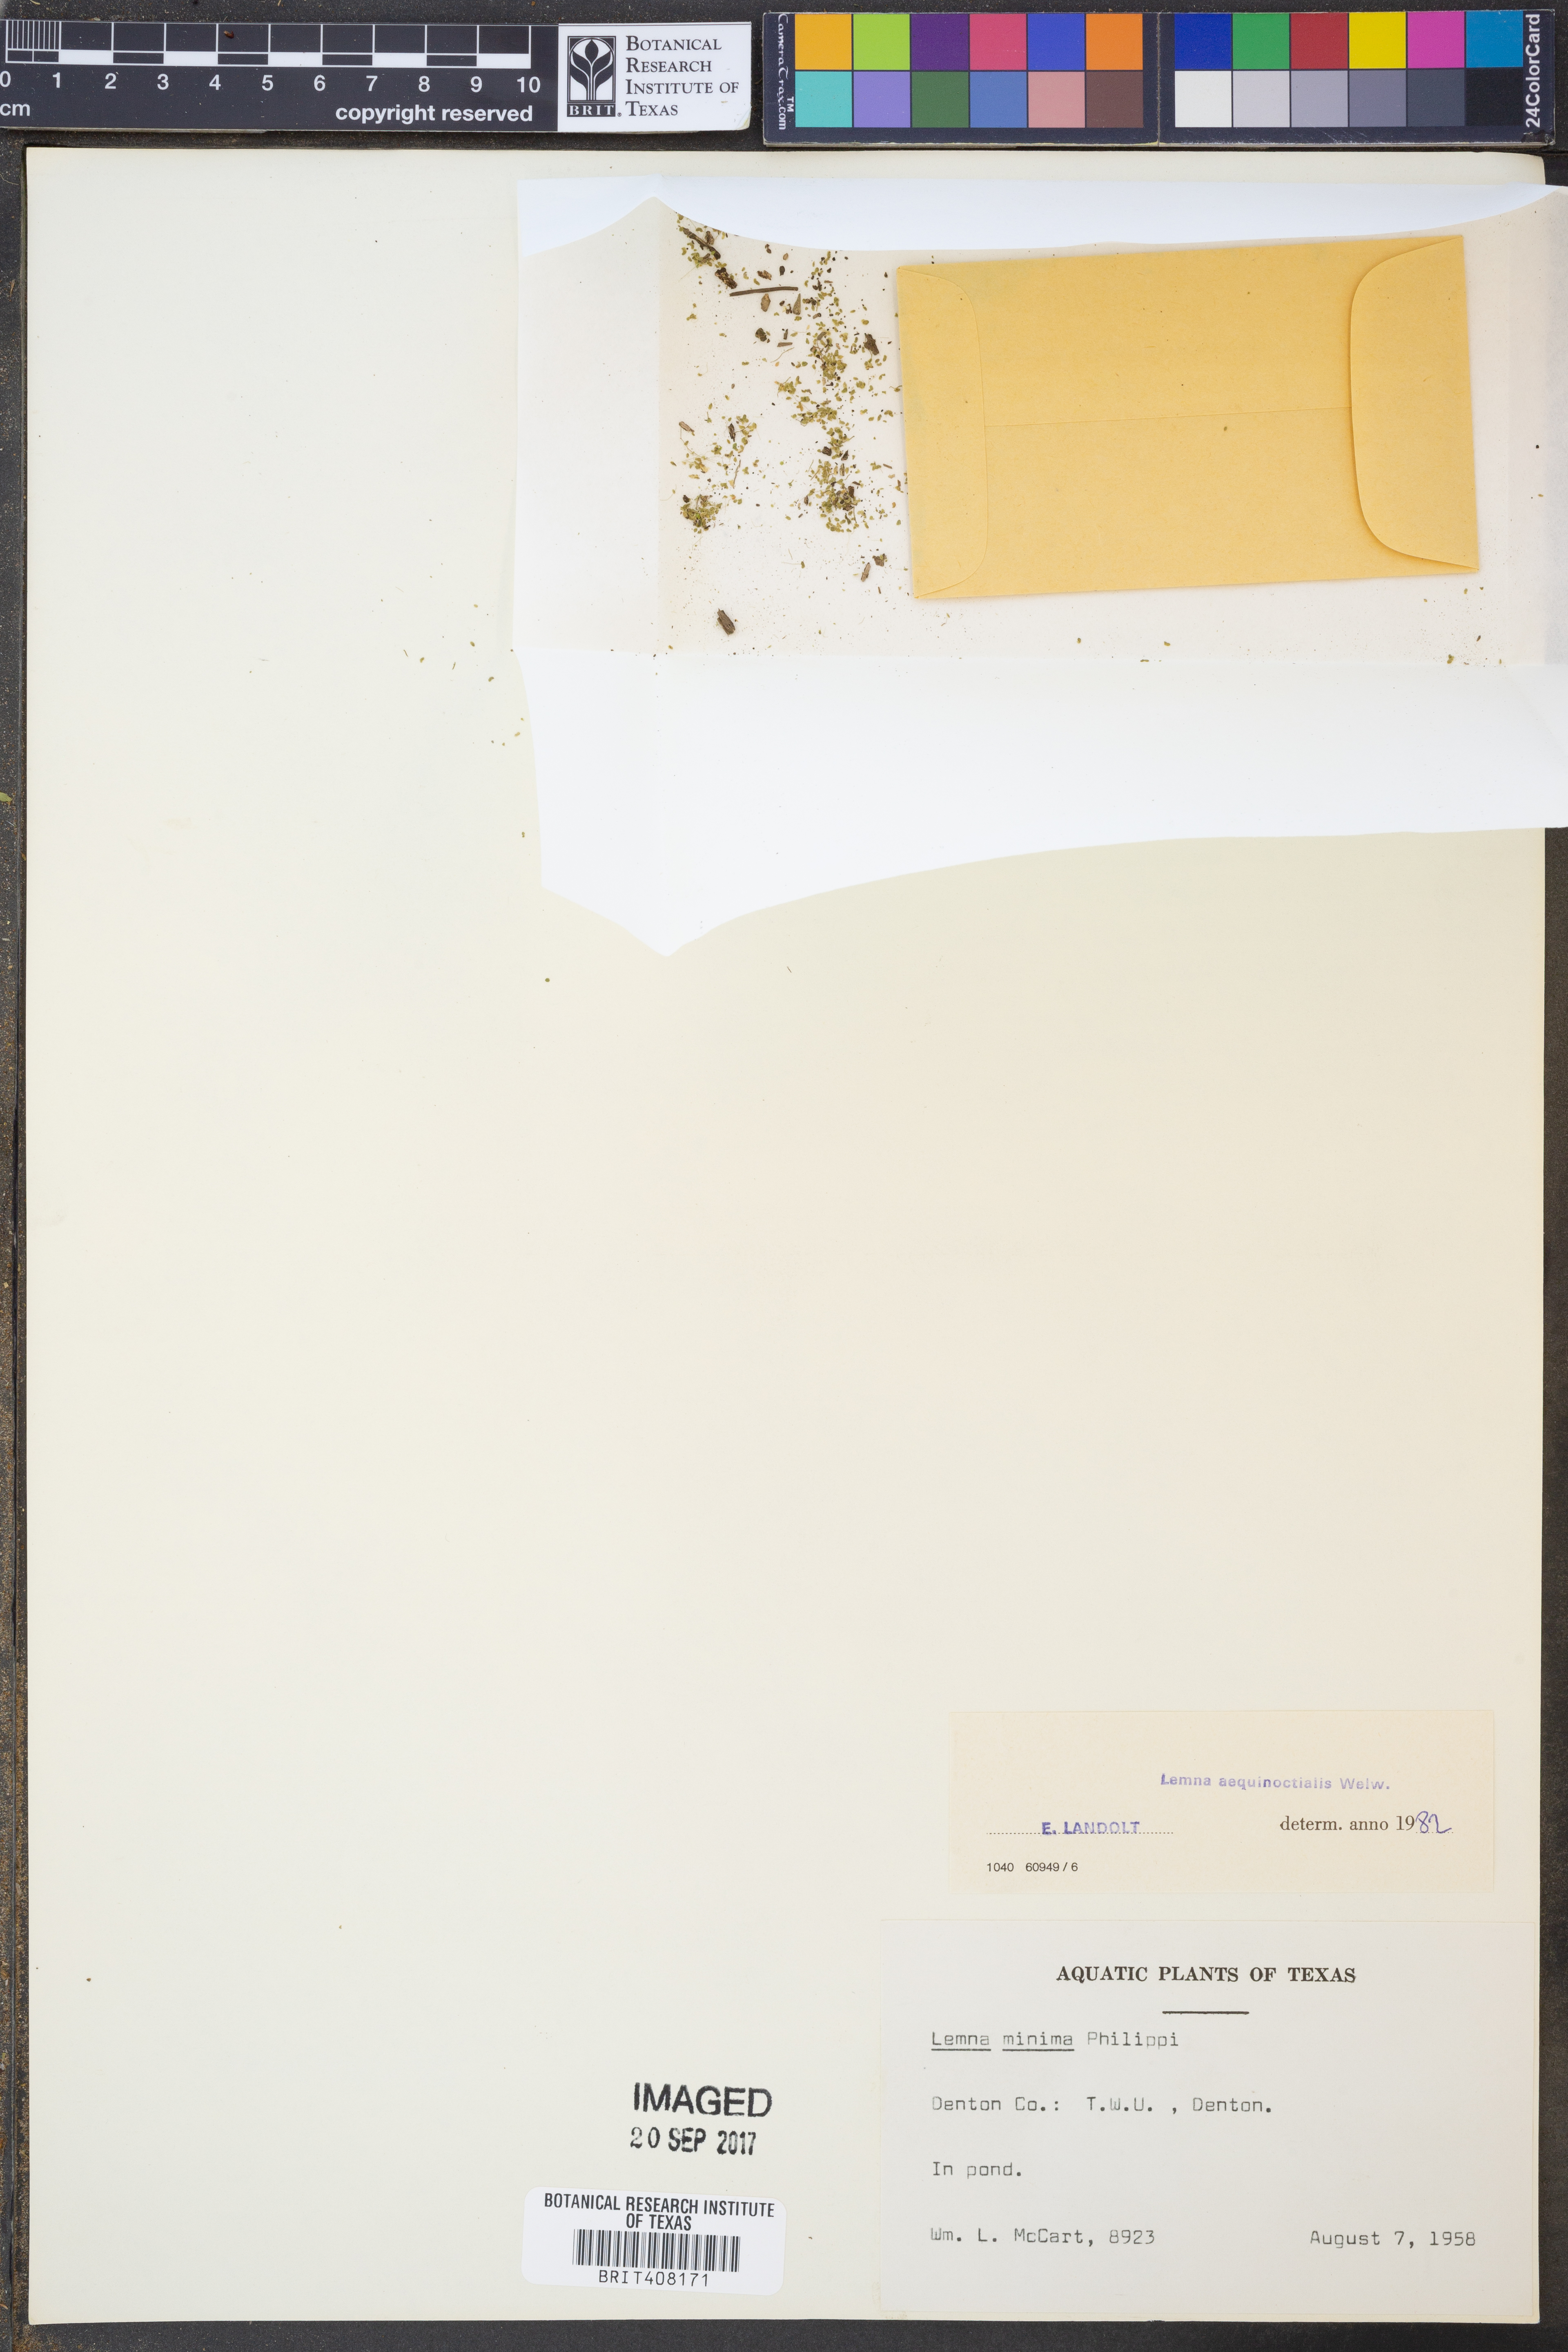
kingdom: Plantae
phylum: Tracheophyta
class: Liliopsida
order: Alismatales
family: Araceae
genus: Lemna
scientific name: Lemna aequinoctialis
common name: Duckweed
